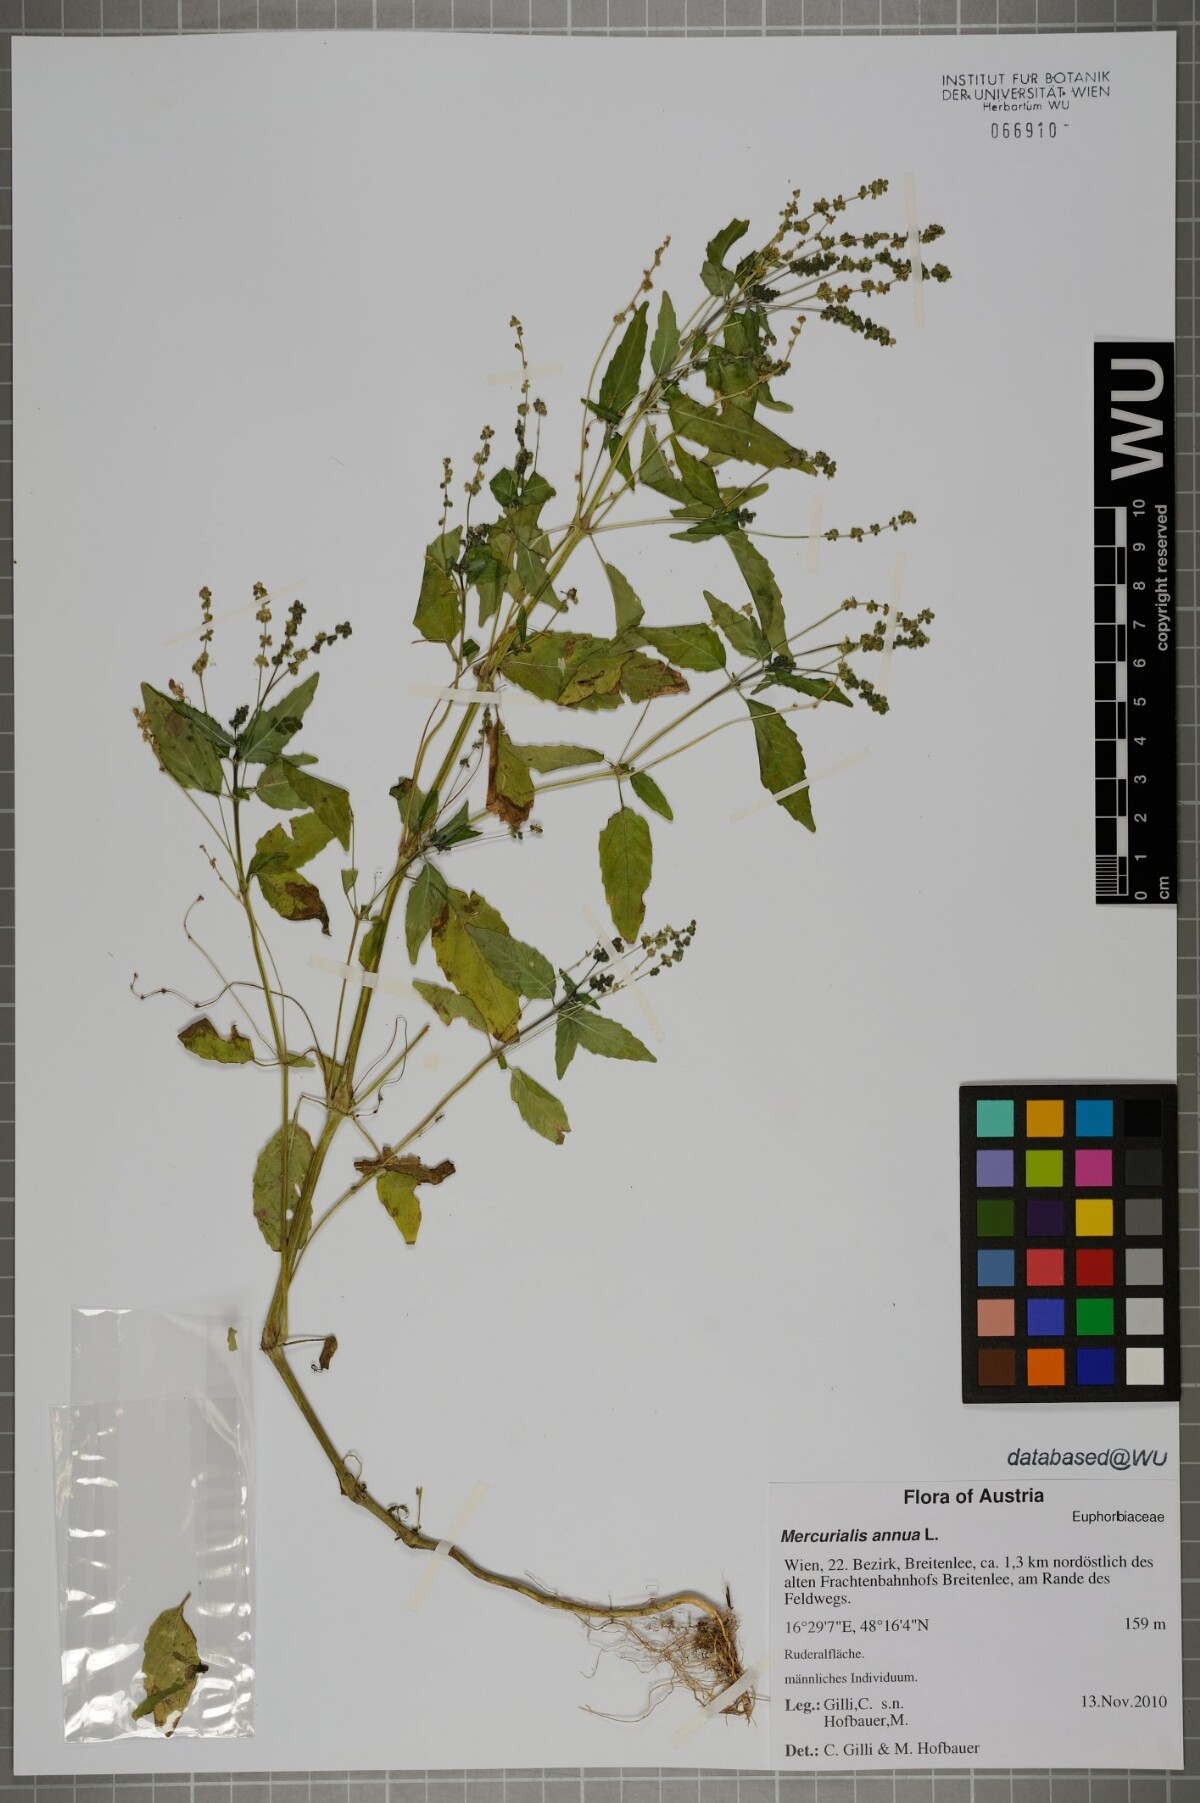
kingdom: Plantae
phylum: Tracheophyta
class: Magnoliopsida
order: Malpighiales
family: Euphorbiaceae
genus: Mercurialis
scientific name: Mercurialis annua
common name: Annual mercury
